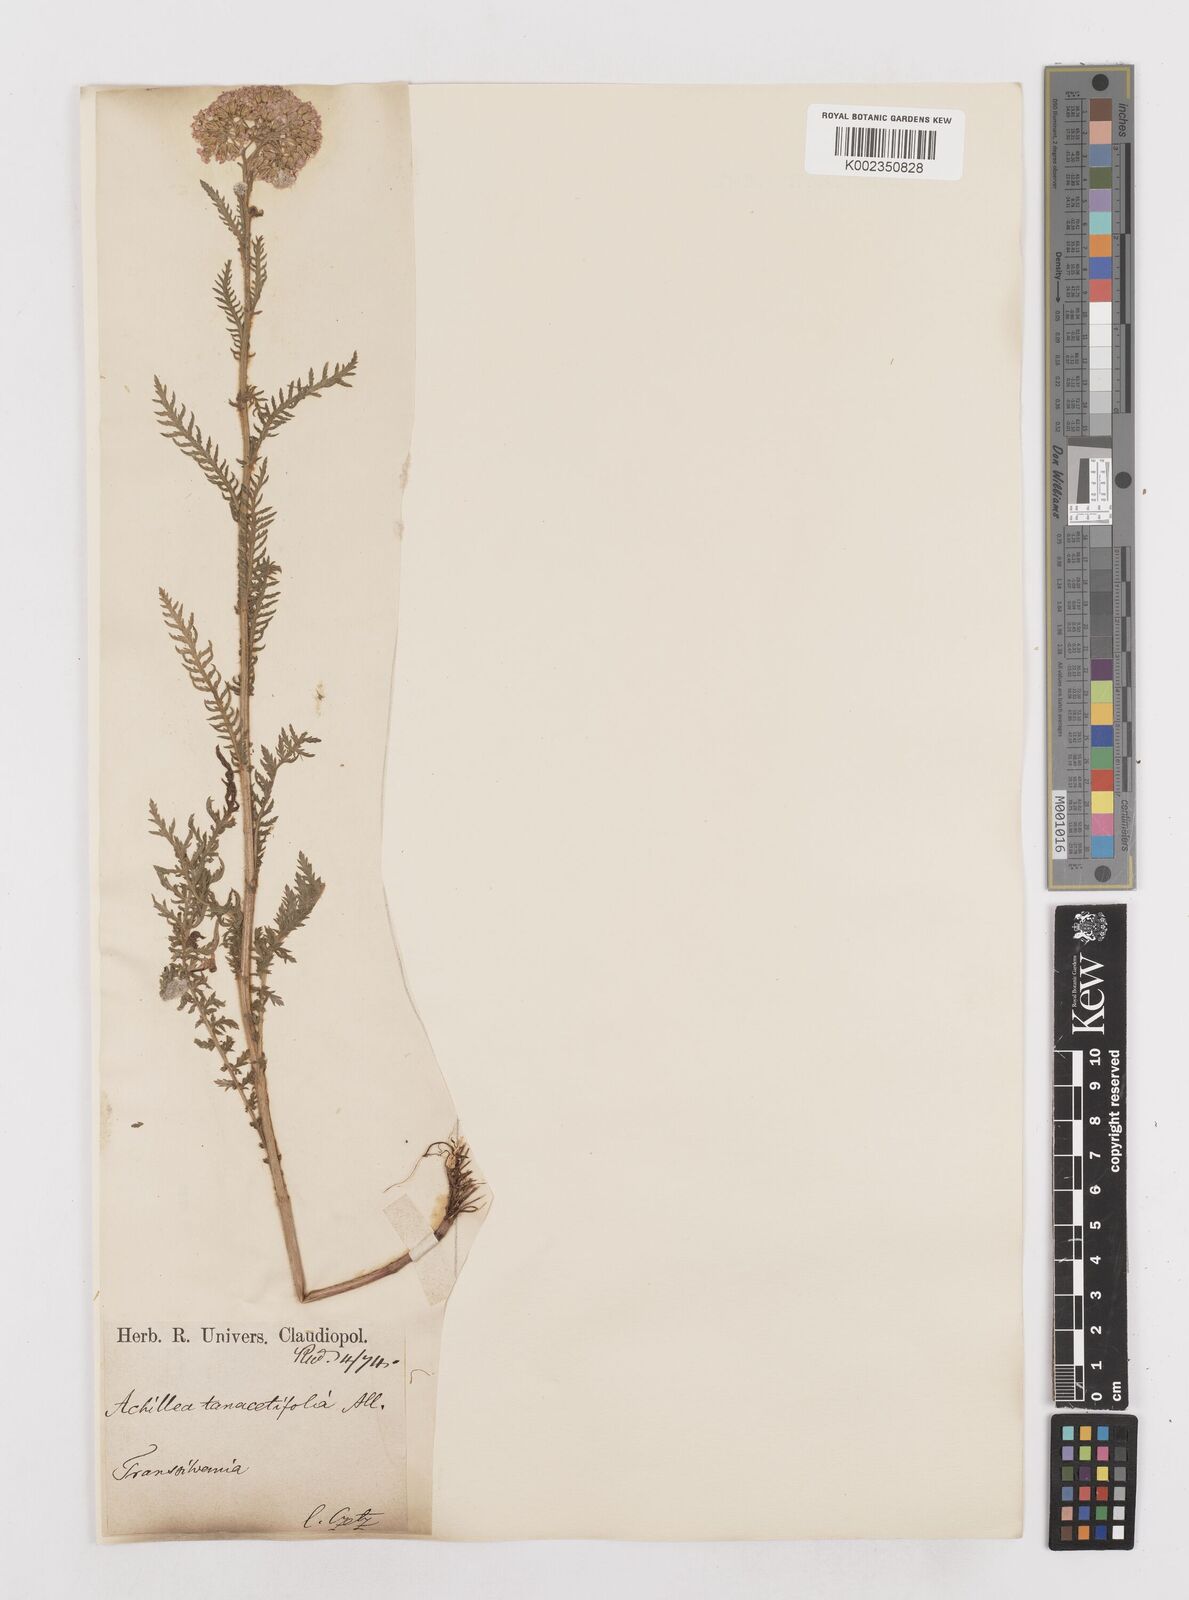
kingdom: Plantae
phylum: Tracheophyta
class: Magnoliopsida
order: Asterales
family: Asteraceae
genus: Achillea
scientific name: Achillea distans
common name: Tall yarrow
